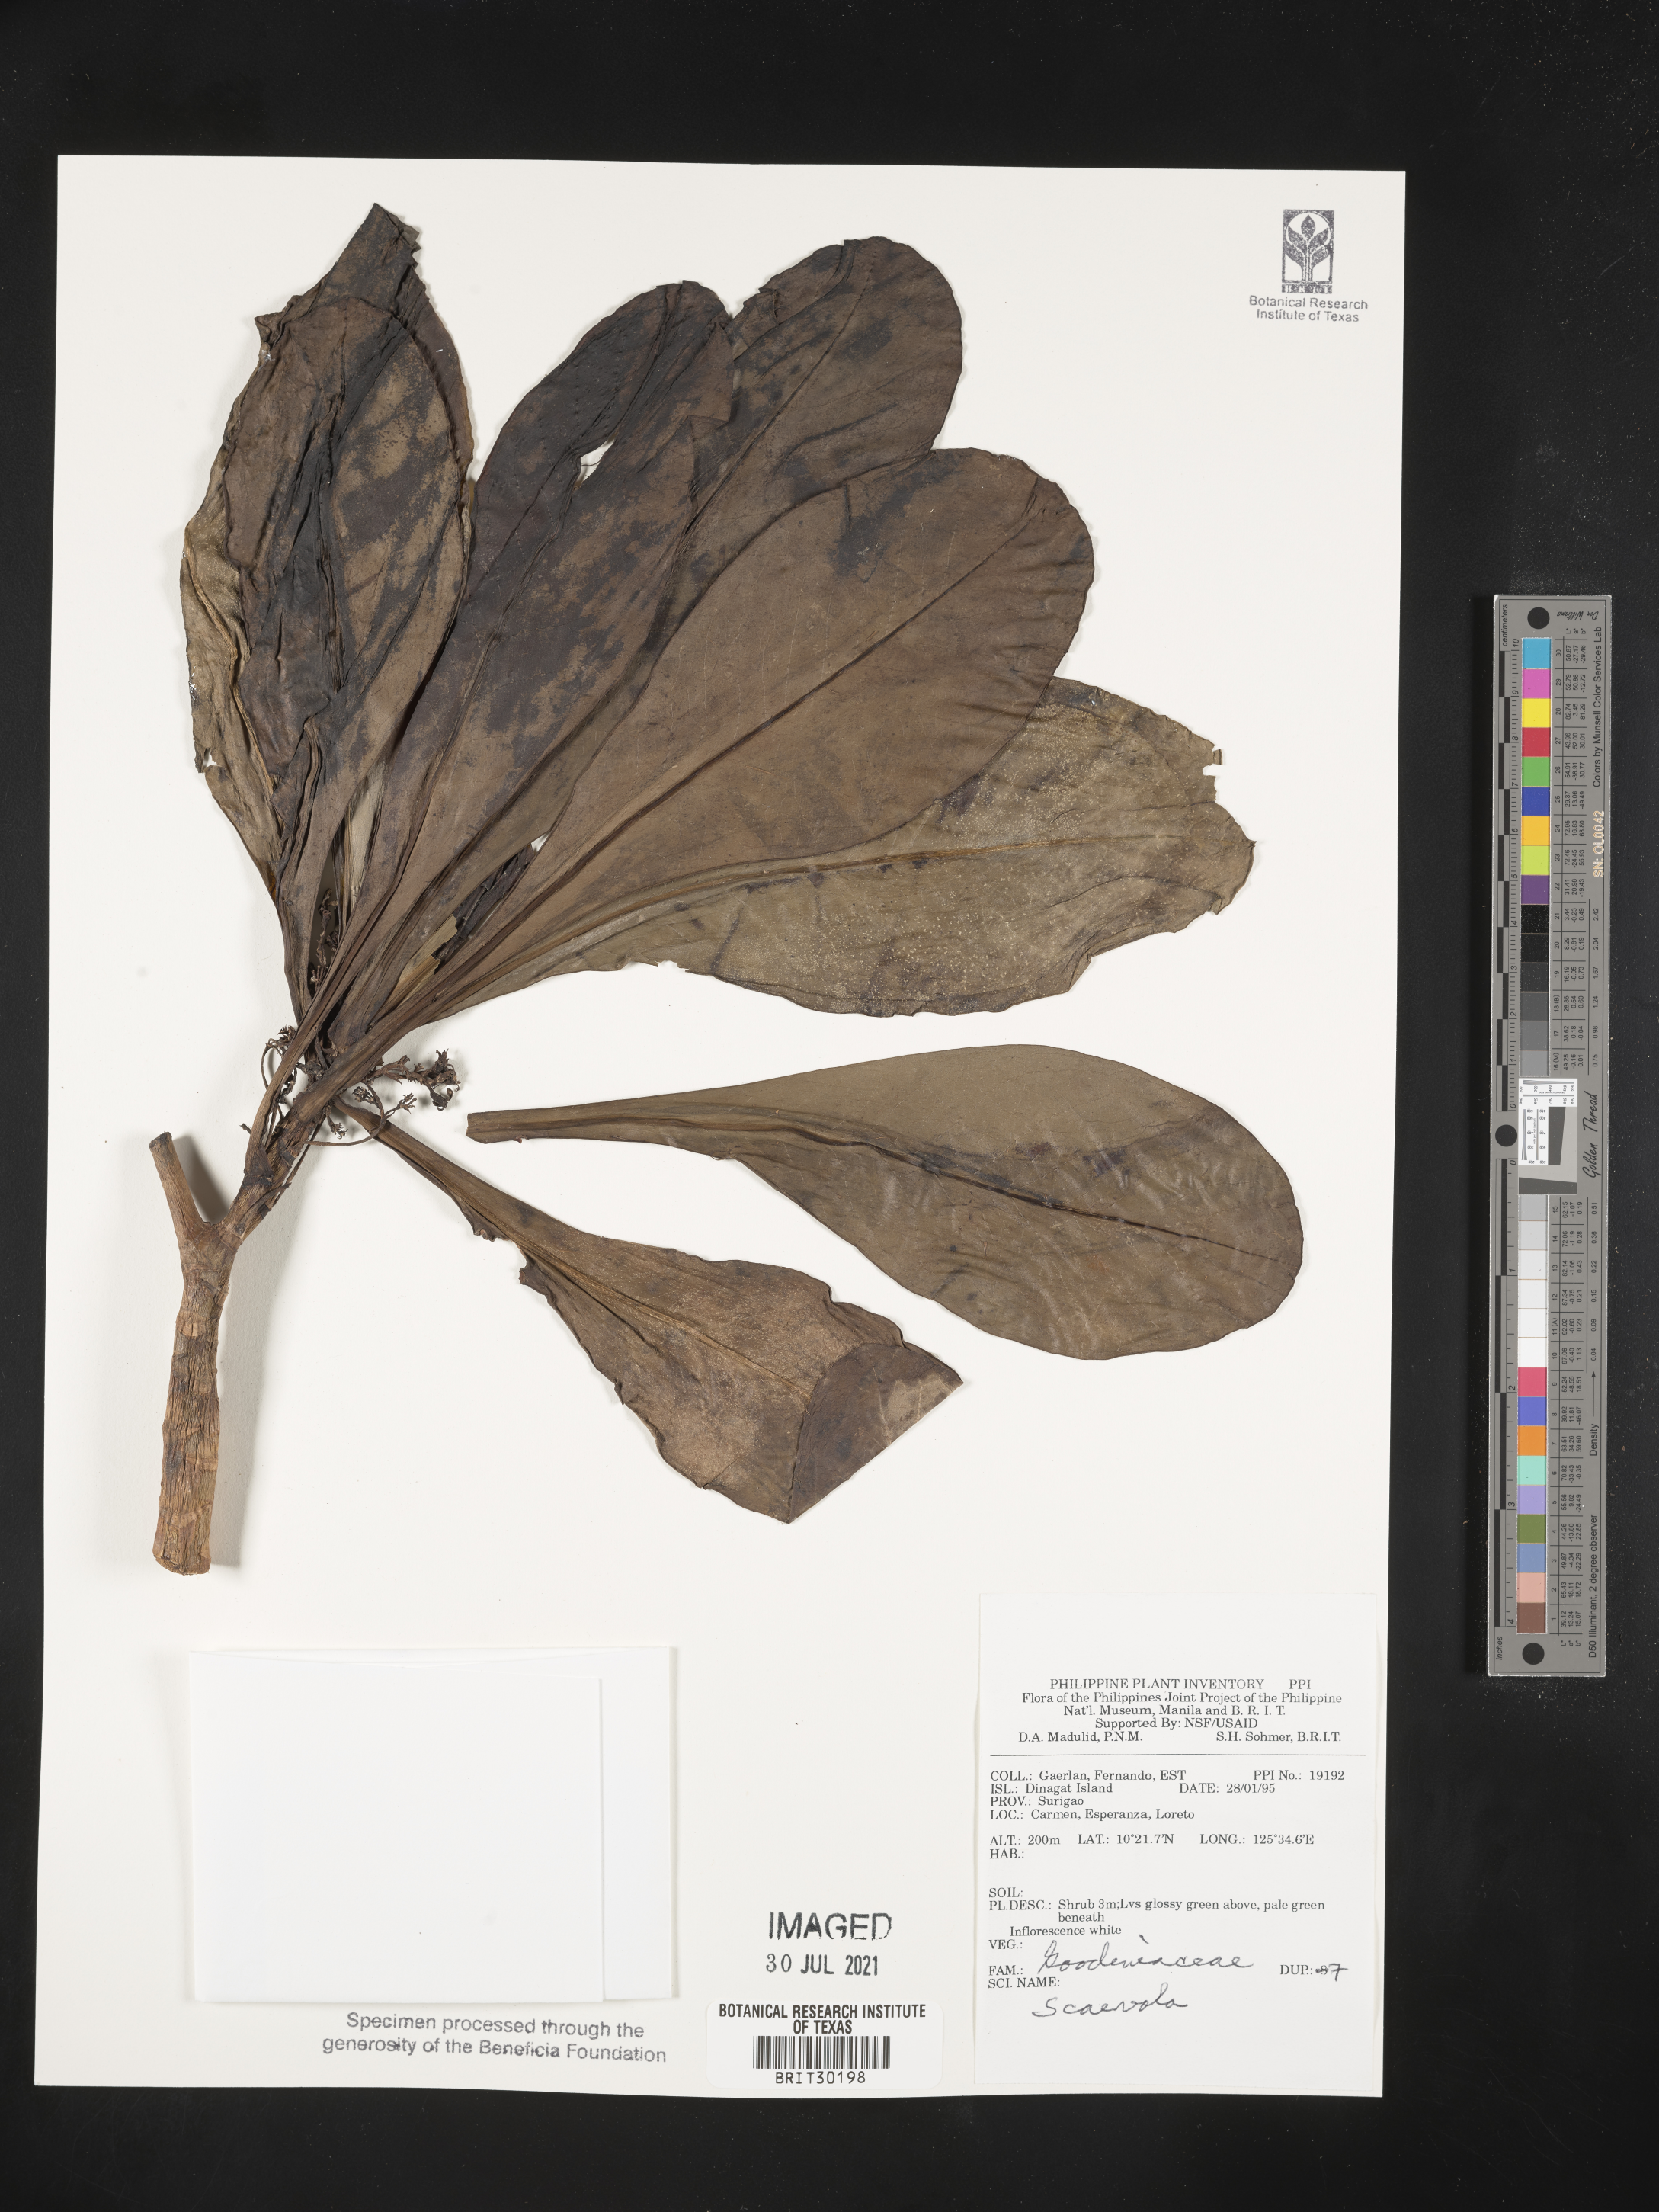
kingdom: Plantae
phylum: Tracheophyta
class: Magnoliopsida
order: Asterales
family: Goodeniaceae
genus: Scaevola
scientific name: Scaevola
